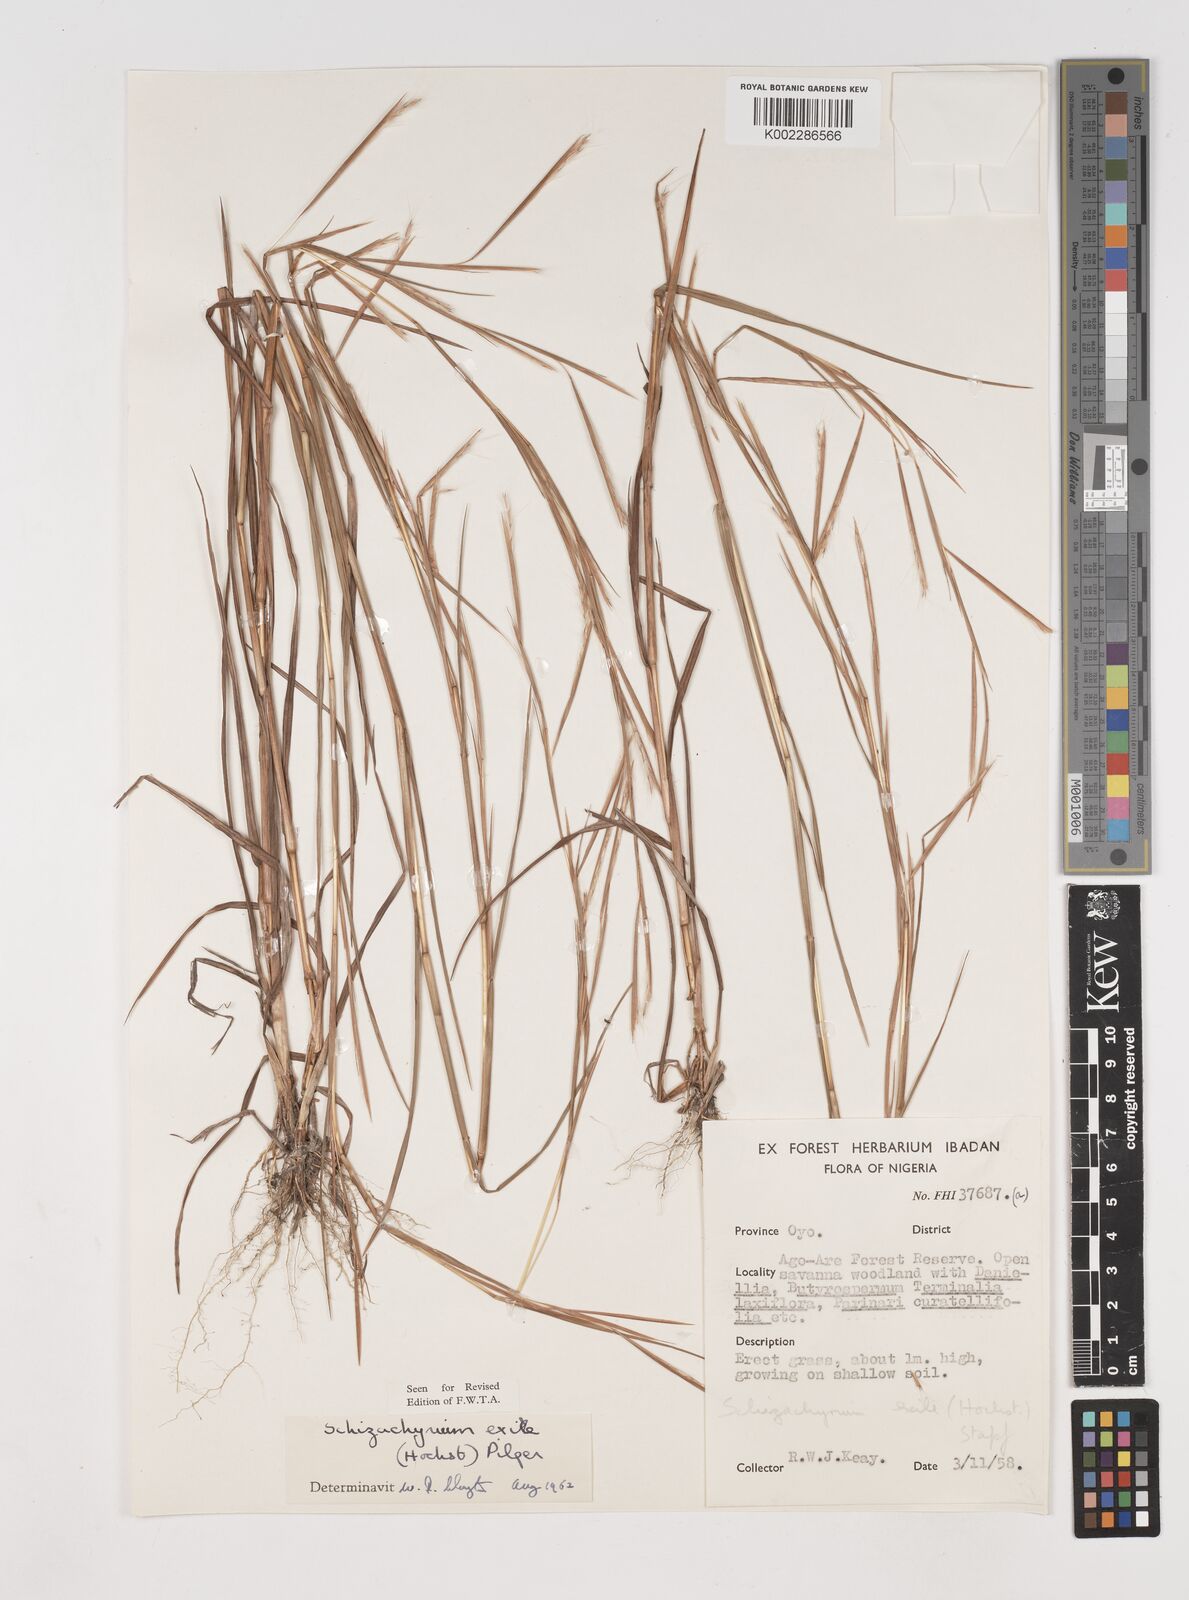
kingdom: Plantae
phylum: Tracheophyta
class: Liliopsida
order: Poales
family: Poaceae
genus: Schizachyrium
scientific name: Schizachyrium exile
